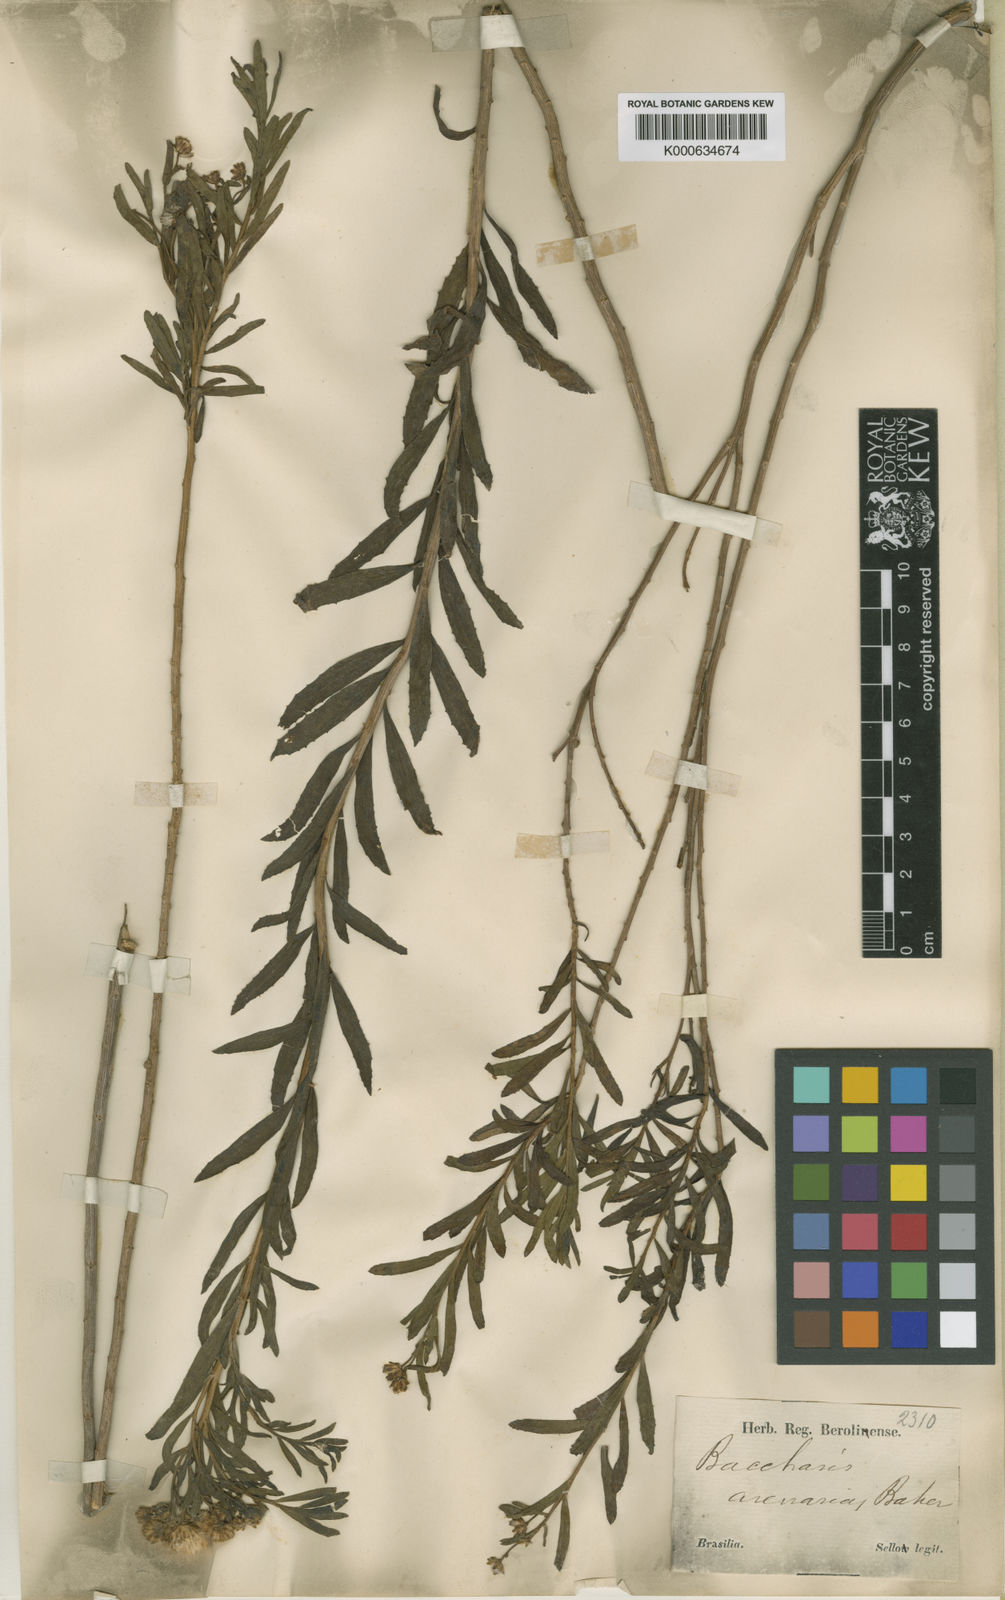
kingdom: Plantae
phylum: Tracheophyta
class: Magnoliopsida
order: Asterales
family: Asteraceae
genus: Baccharis
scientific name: Baccharis arenaria
